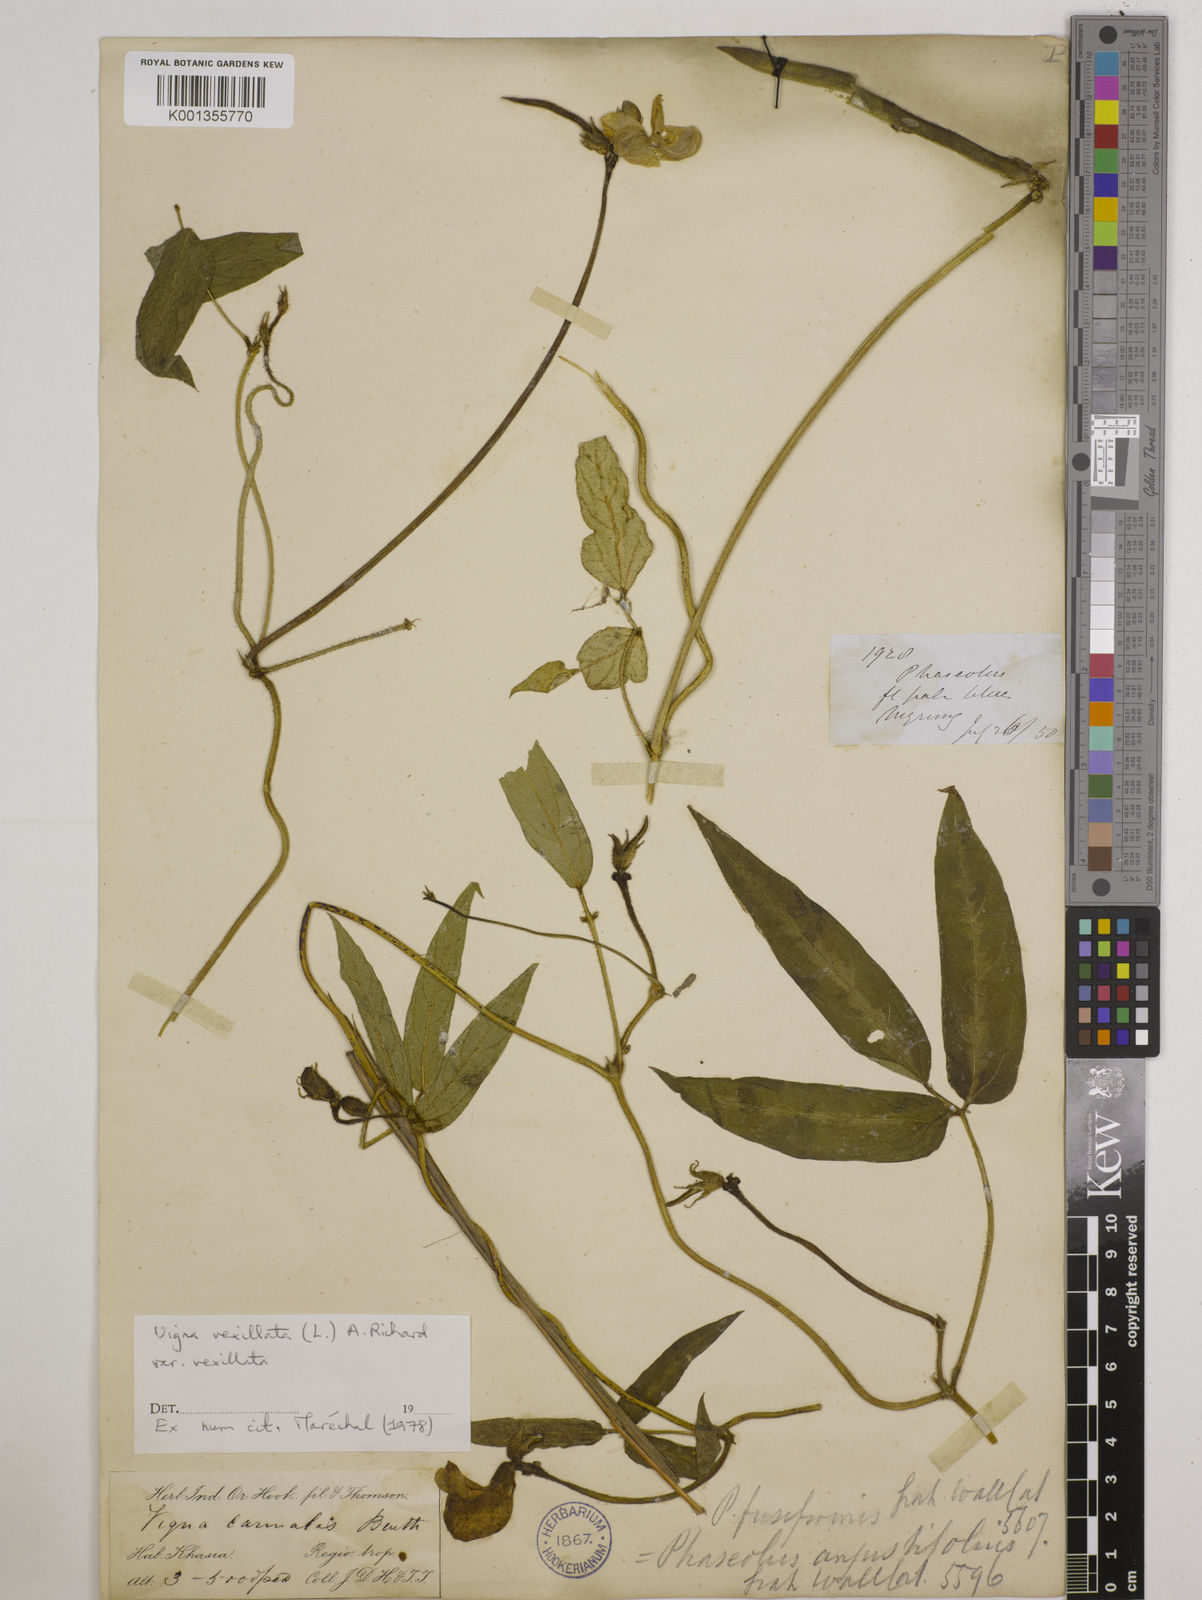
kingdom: Plantae
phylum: Tracheophyta
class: Magnoliopsida
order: Fabales
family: Fabaceae
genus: Vigna
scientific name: Vigna vexillata
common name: Zombi pea
